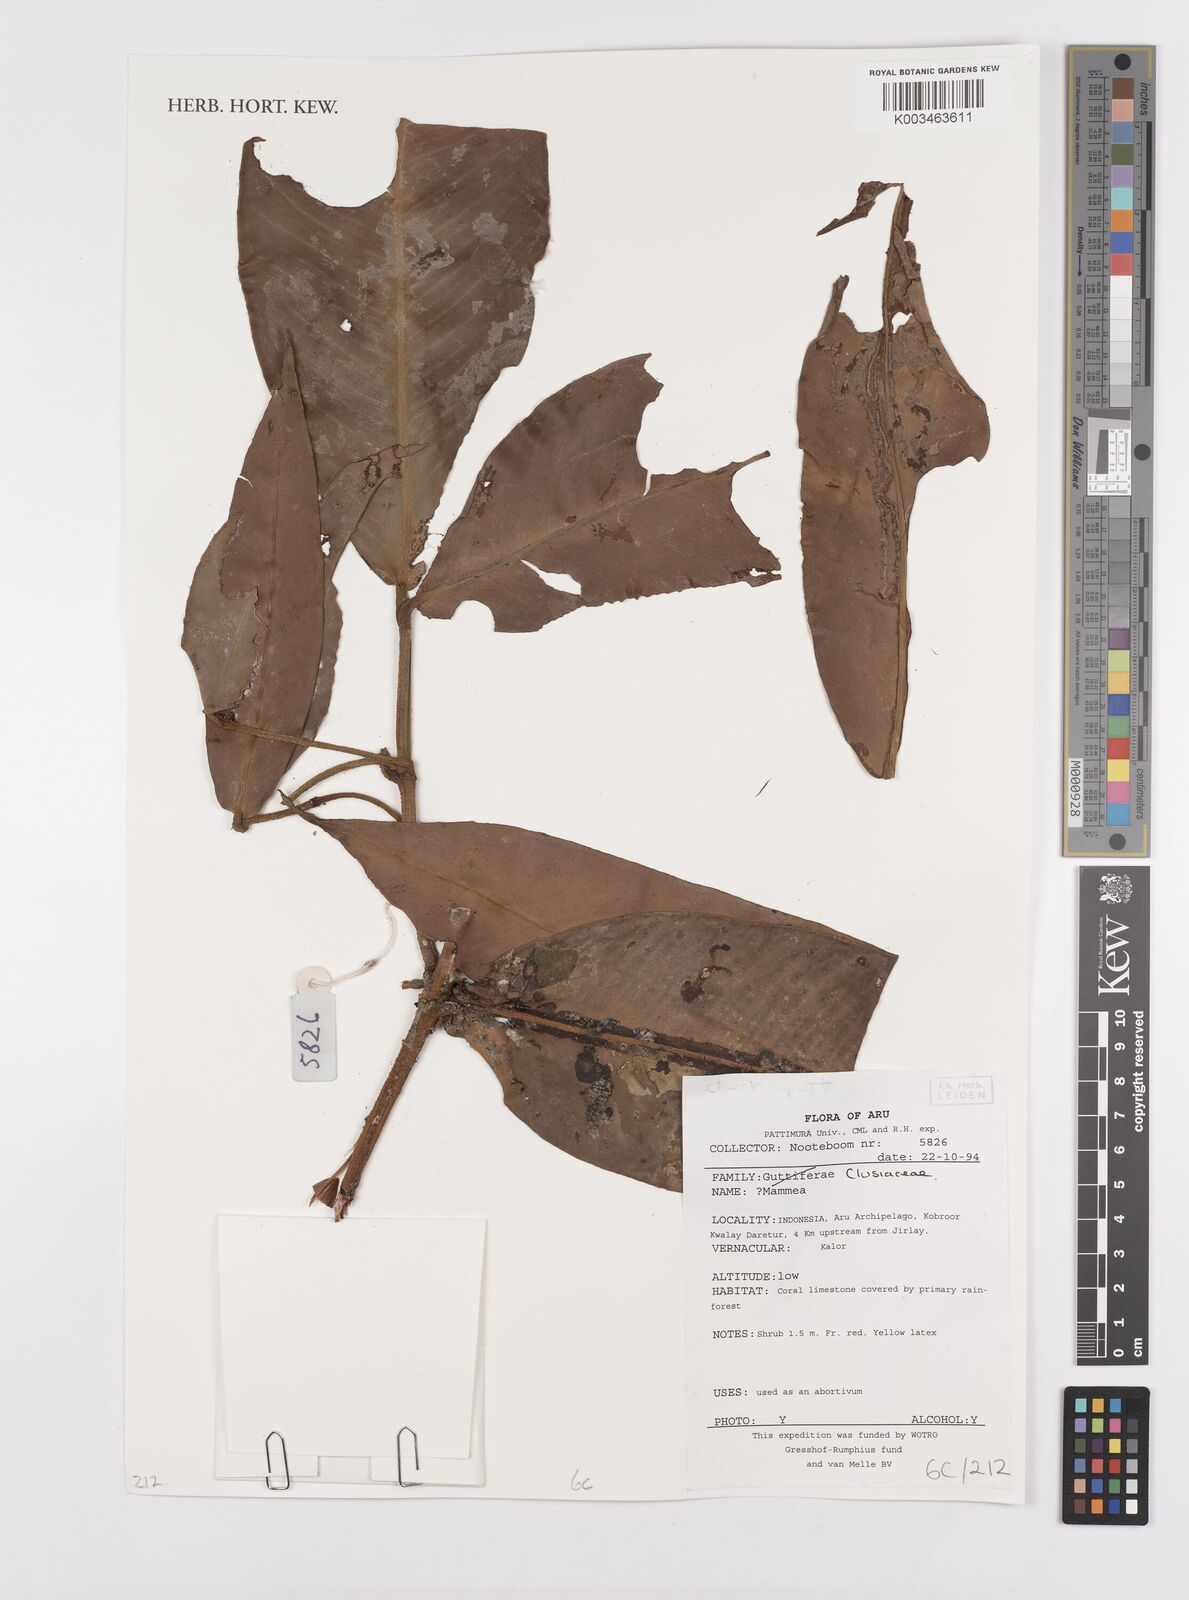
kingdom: Plantae
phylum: Tracheophyta
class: Magnoliopsida
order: Malpighiales
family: Calophyllaceae
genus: Mammea
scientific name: Mammea
